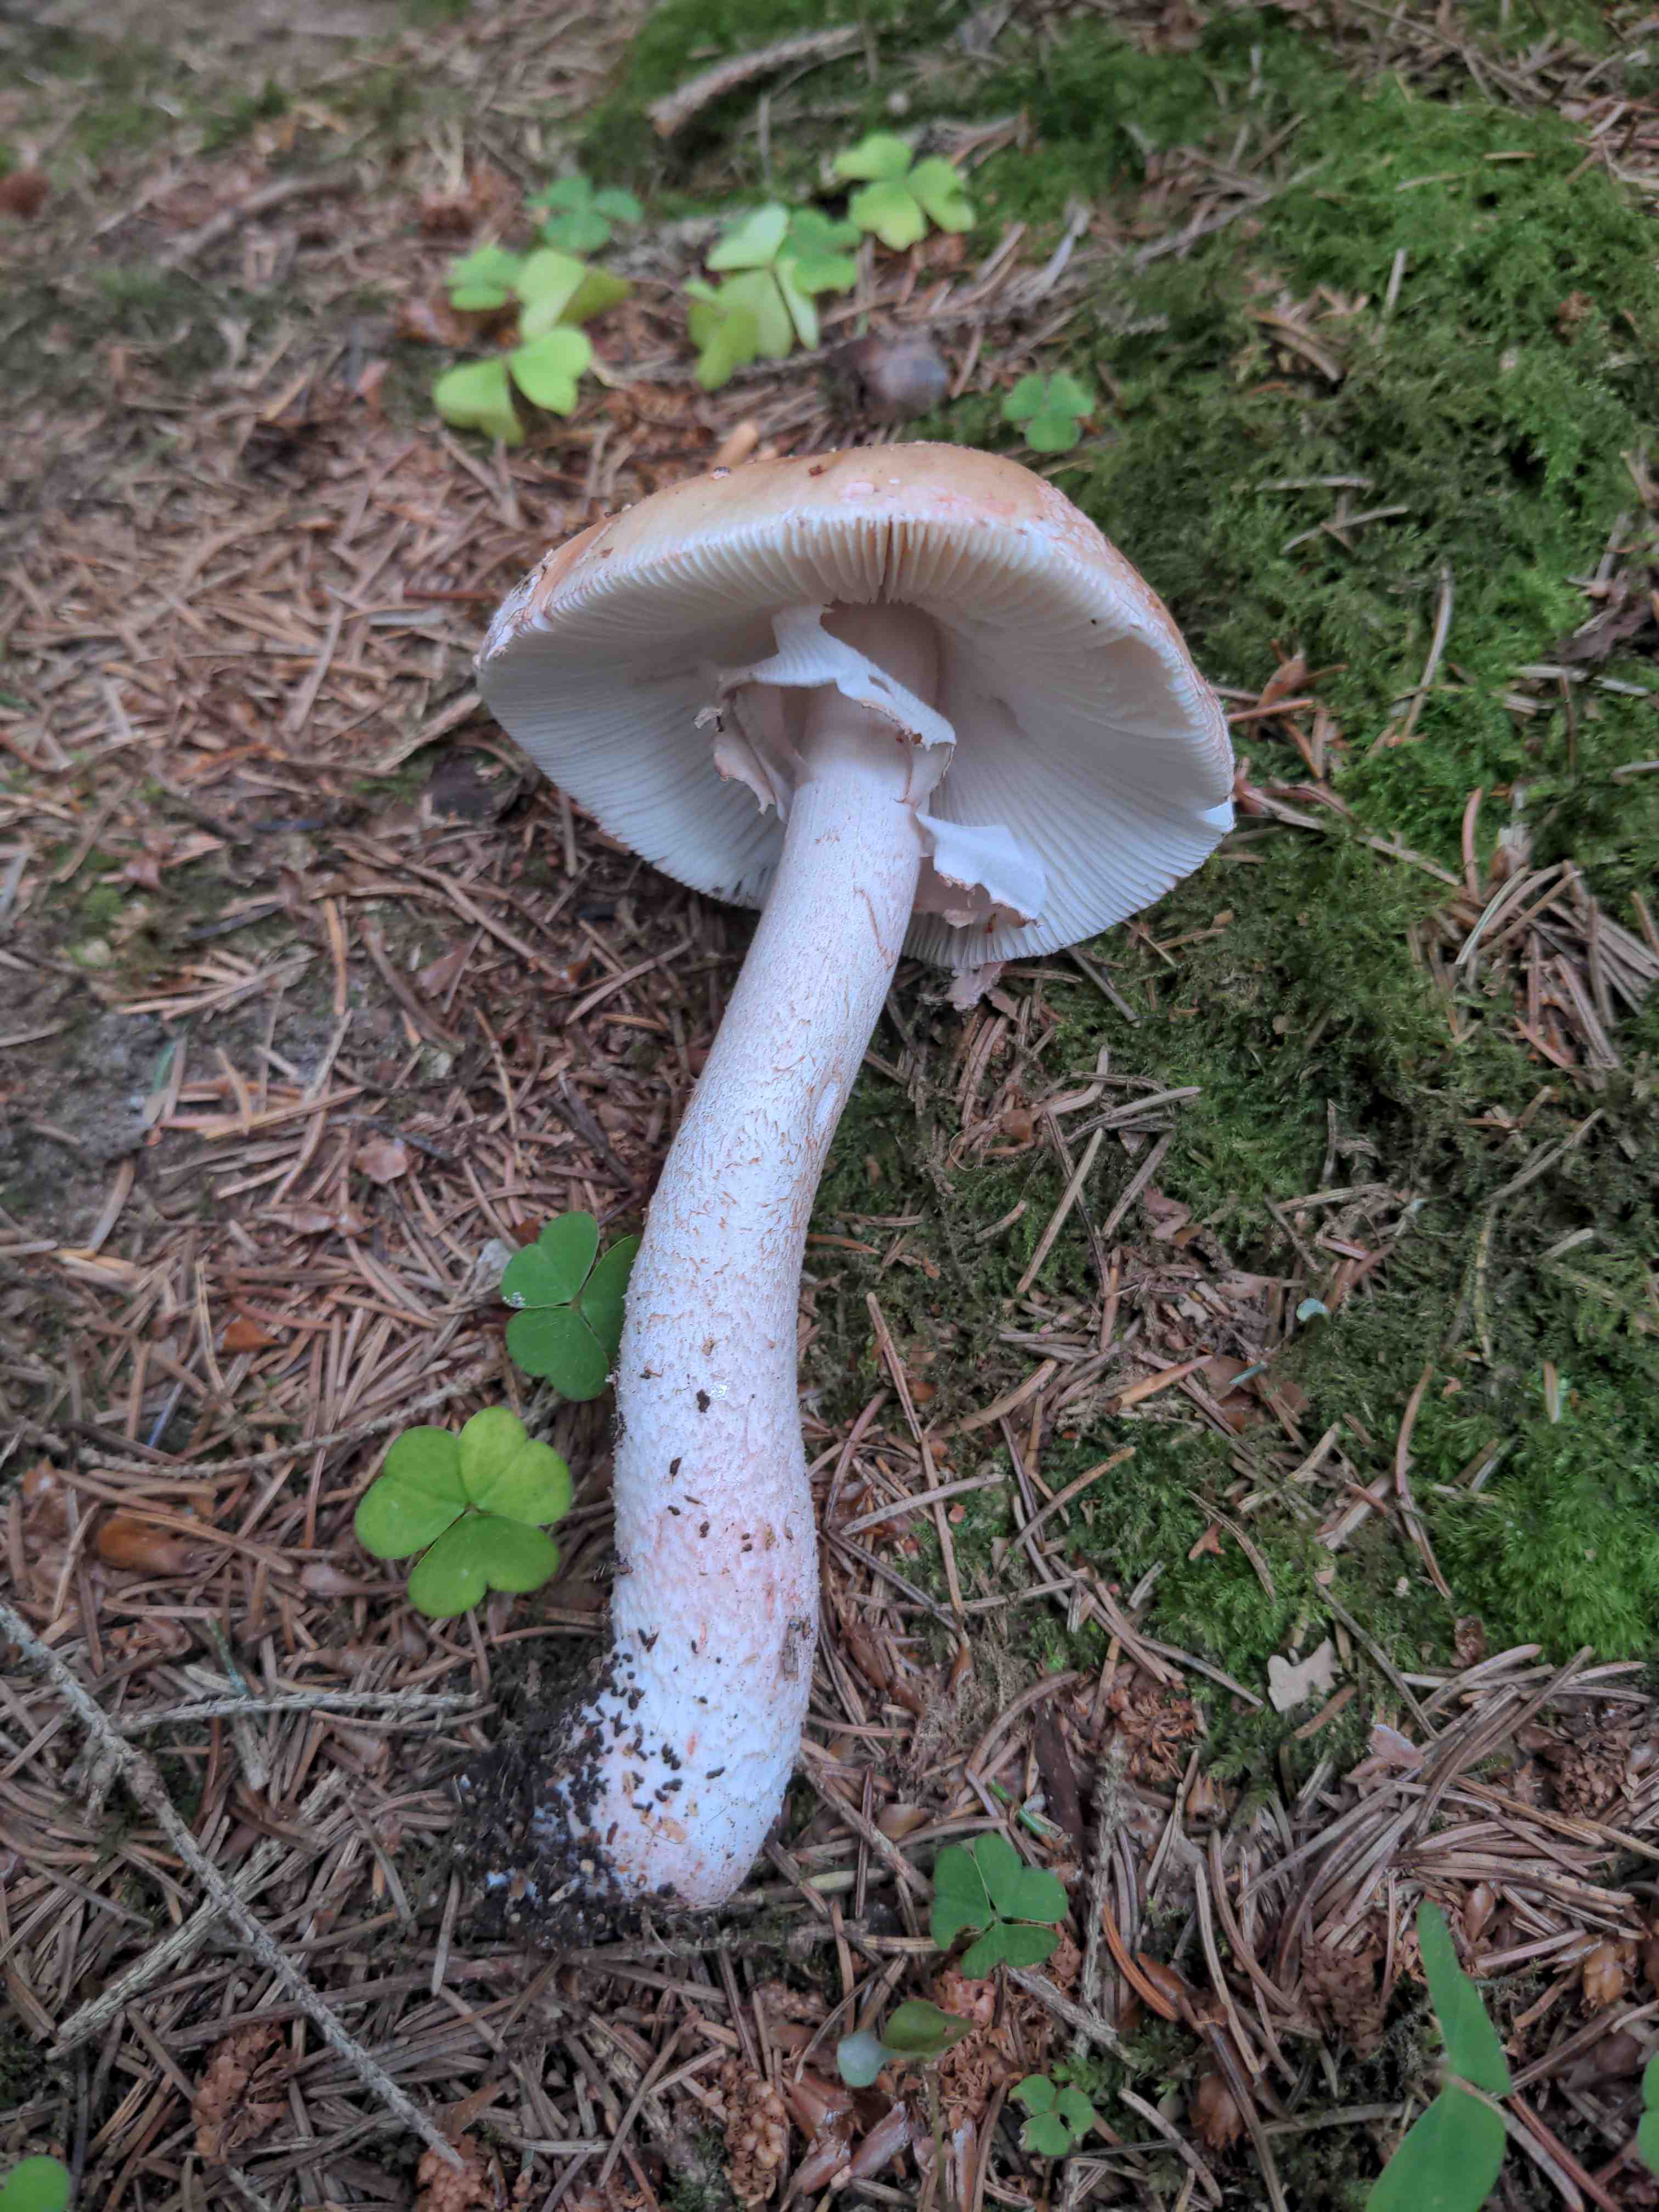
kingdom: Fungi
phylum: Basidiomycota
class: Agaricomycetes
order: Agaricales
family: Amanitaceae
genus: Amanita
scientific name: Amanita rubescens
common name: rødmende fluesvamp
